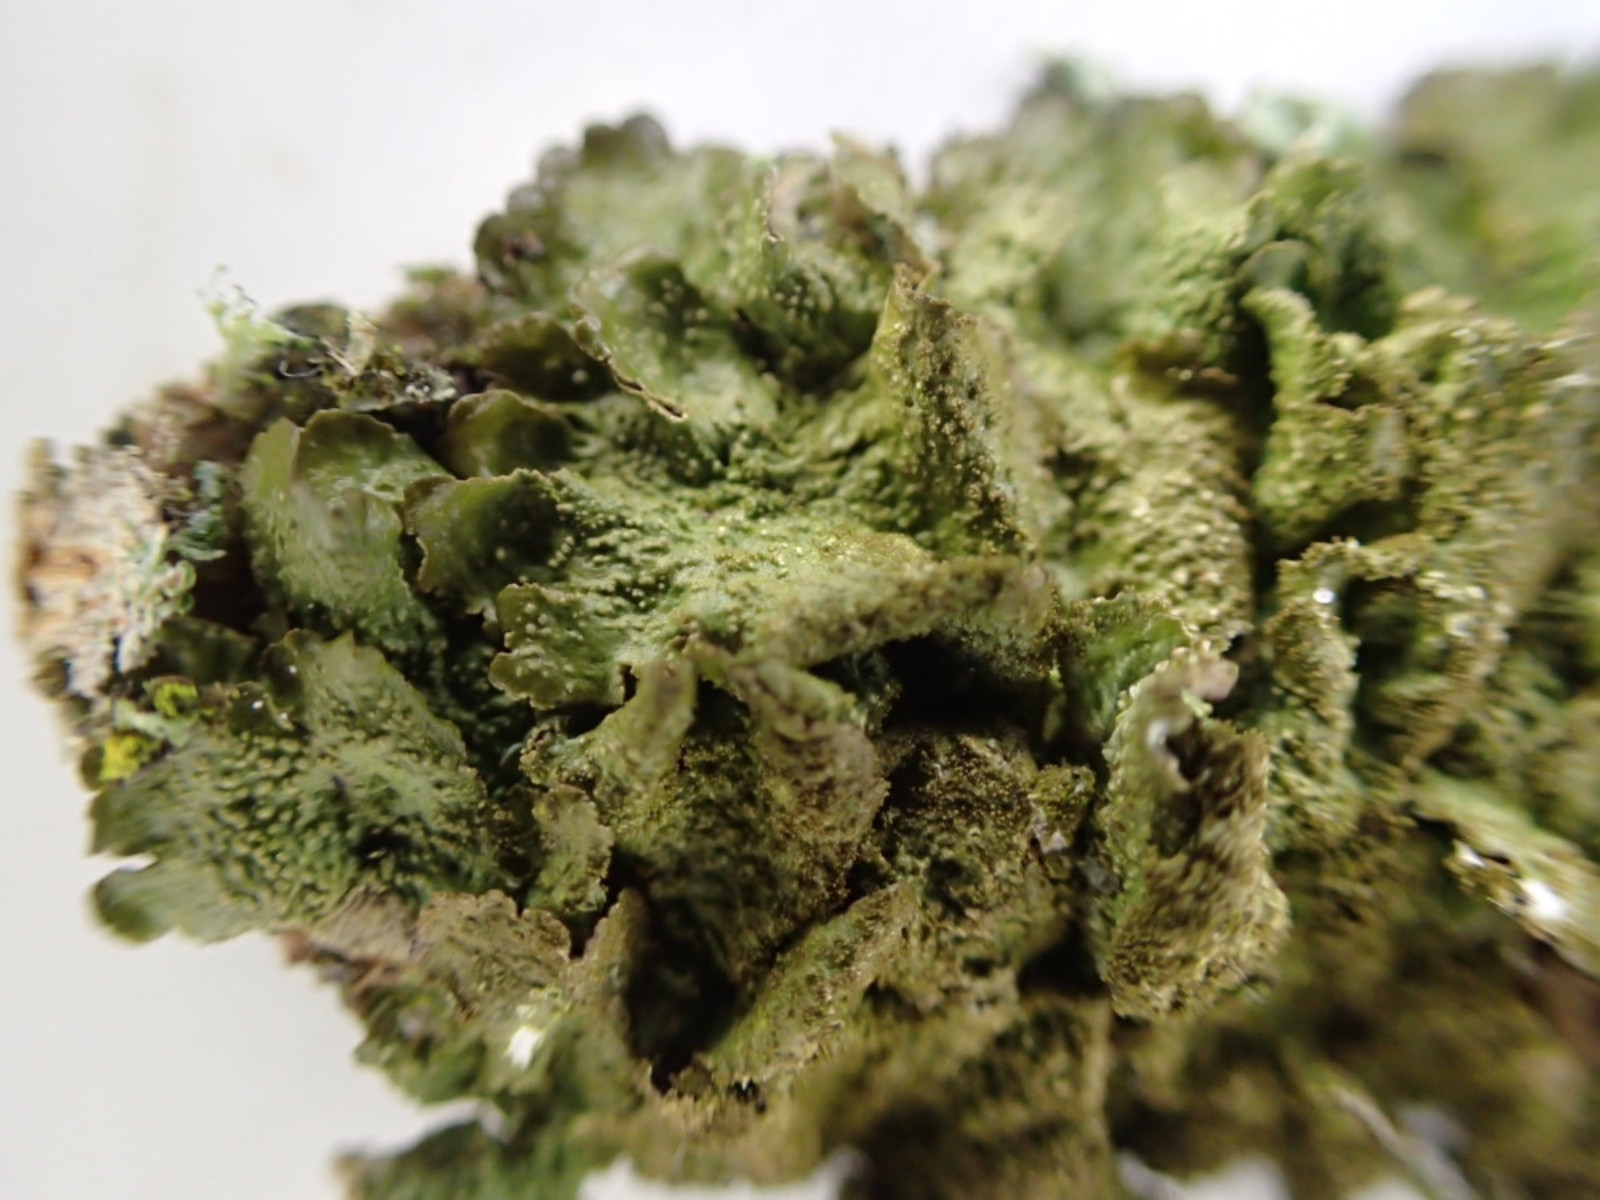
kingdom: Fungi
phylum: Ascomycota
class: Lecanoromycetes
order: Lecanorales
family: Parmeliaceae
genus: Melanohalea
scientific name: Melanohalea exasperatula
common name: kølle-skållav
